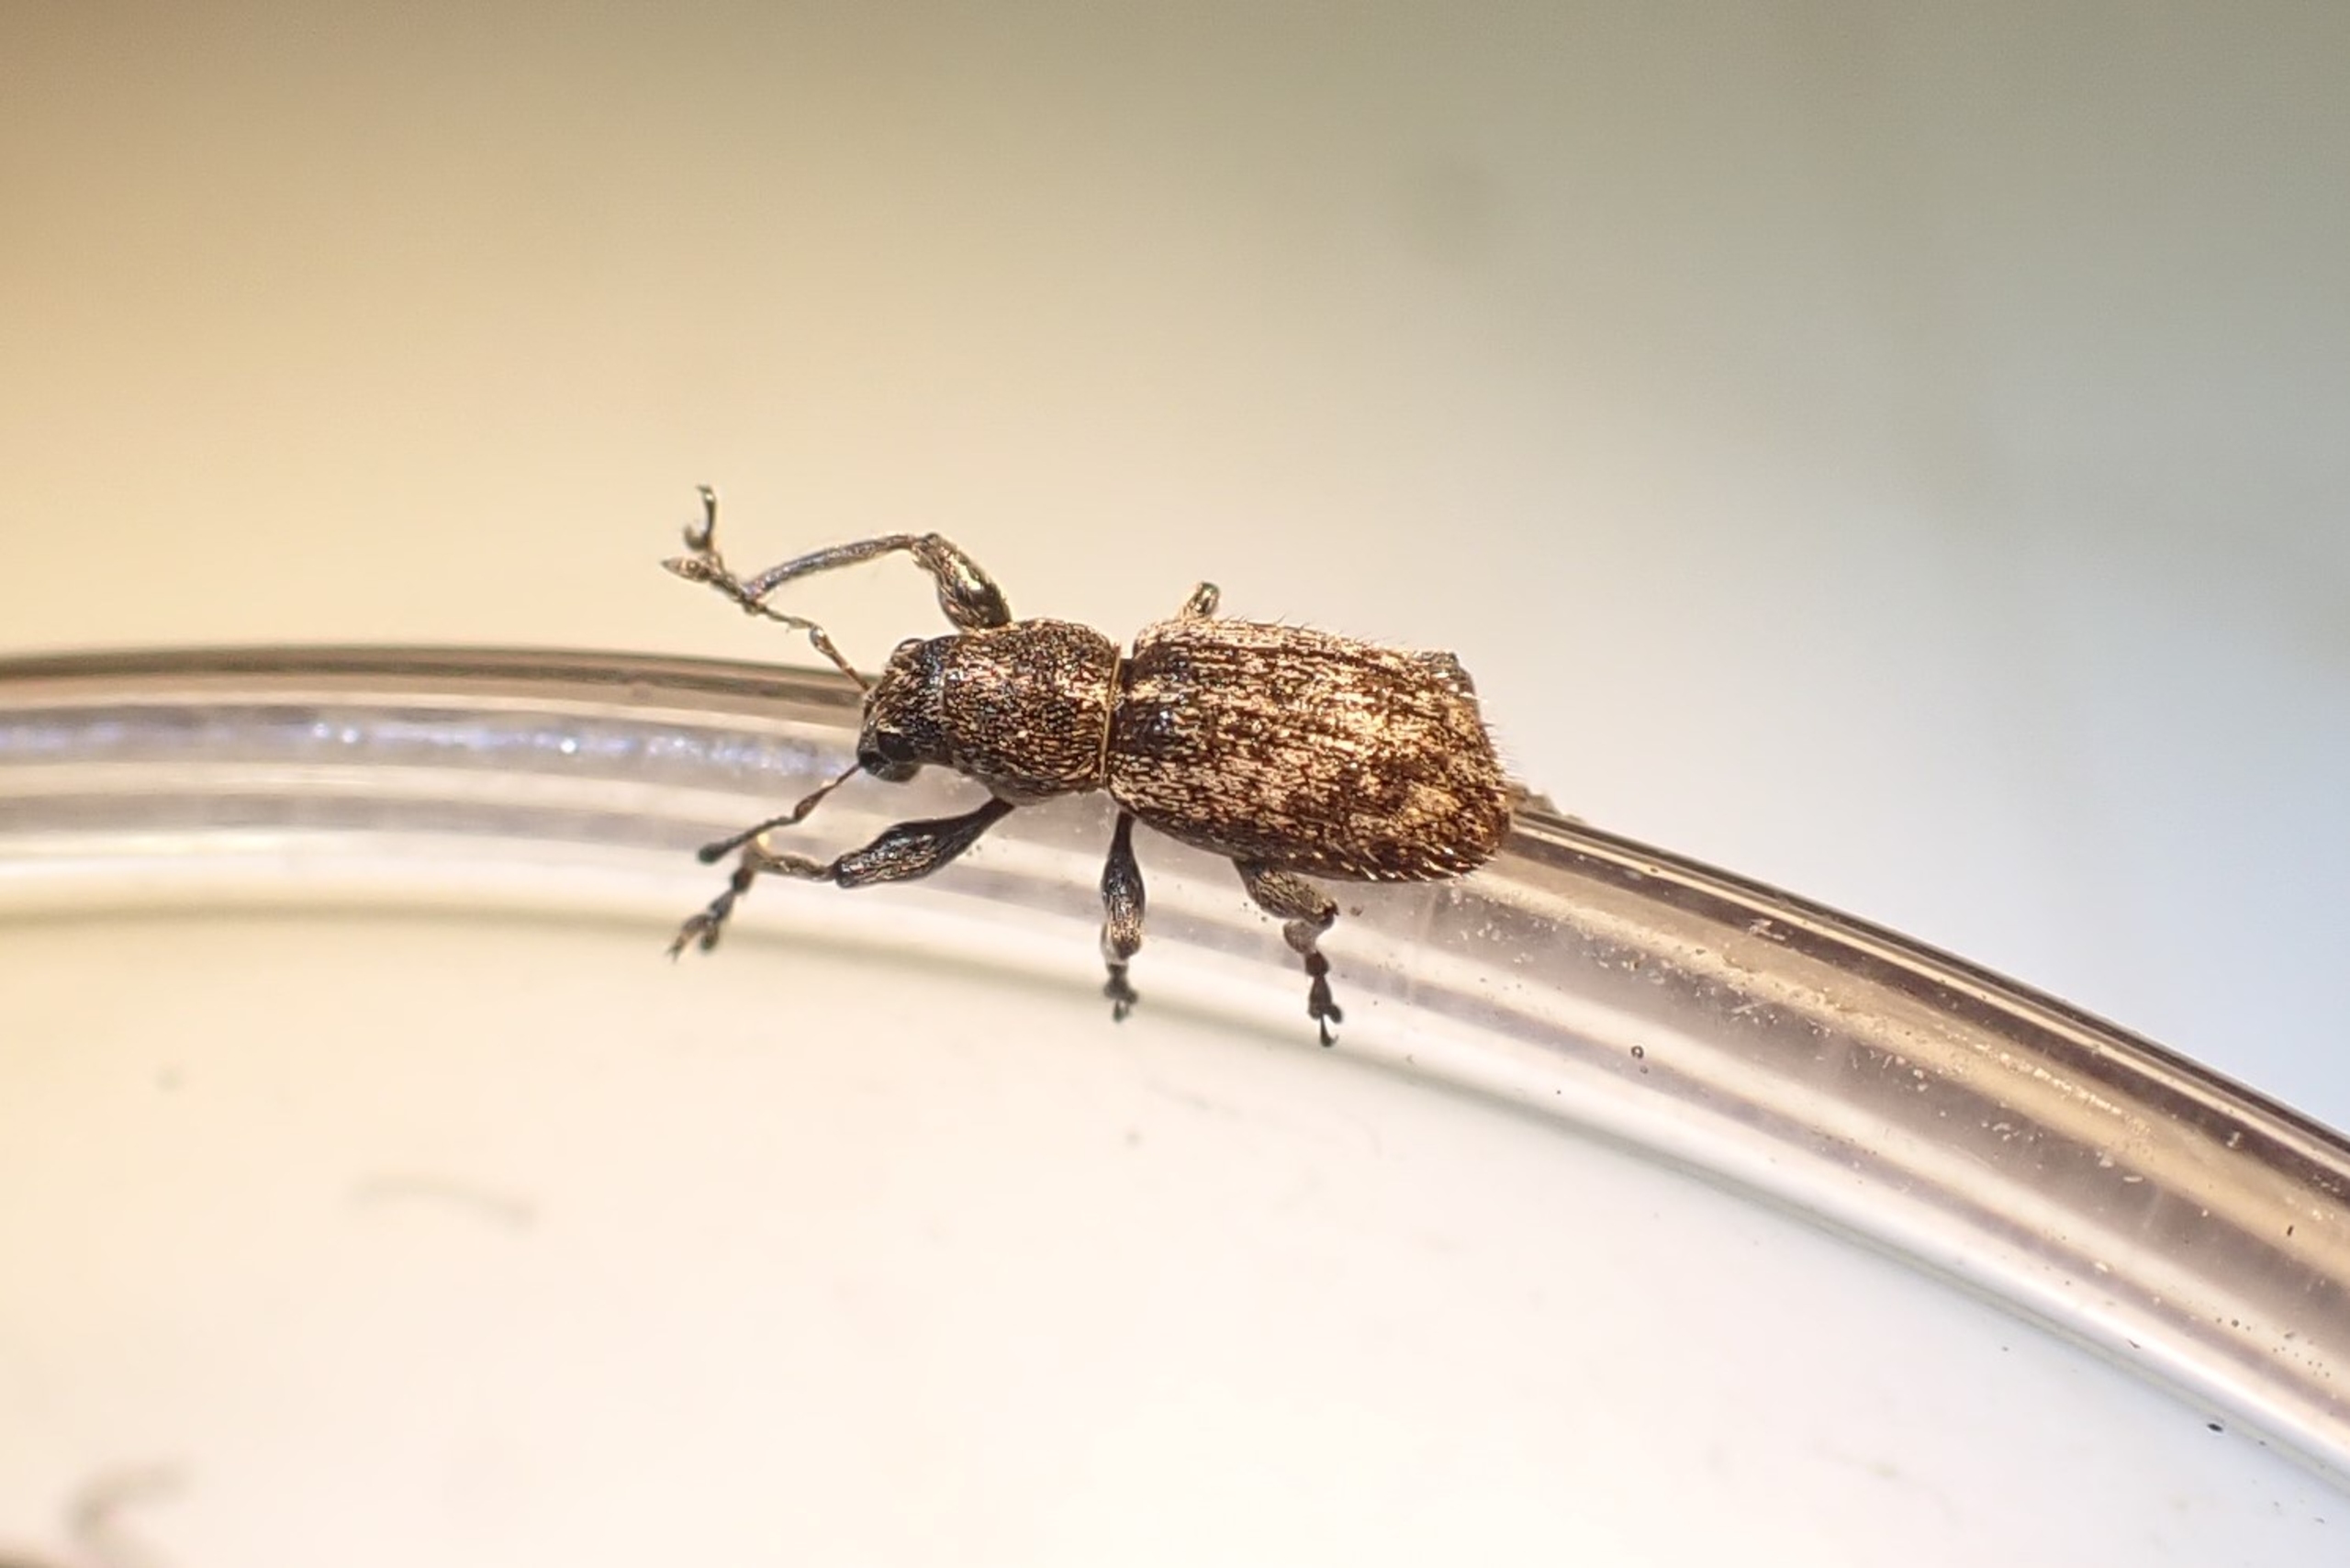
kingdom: Animalia
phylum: Arthropoda
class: Insecta
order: Coleoptera
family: Curculionidae
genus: Andrion
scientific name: Andrion regensteinense
